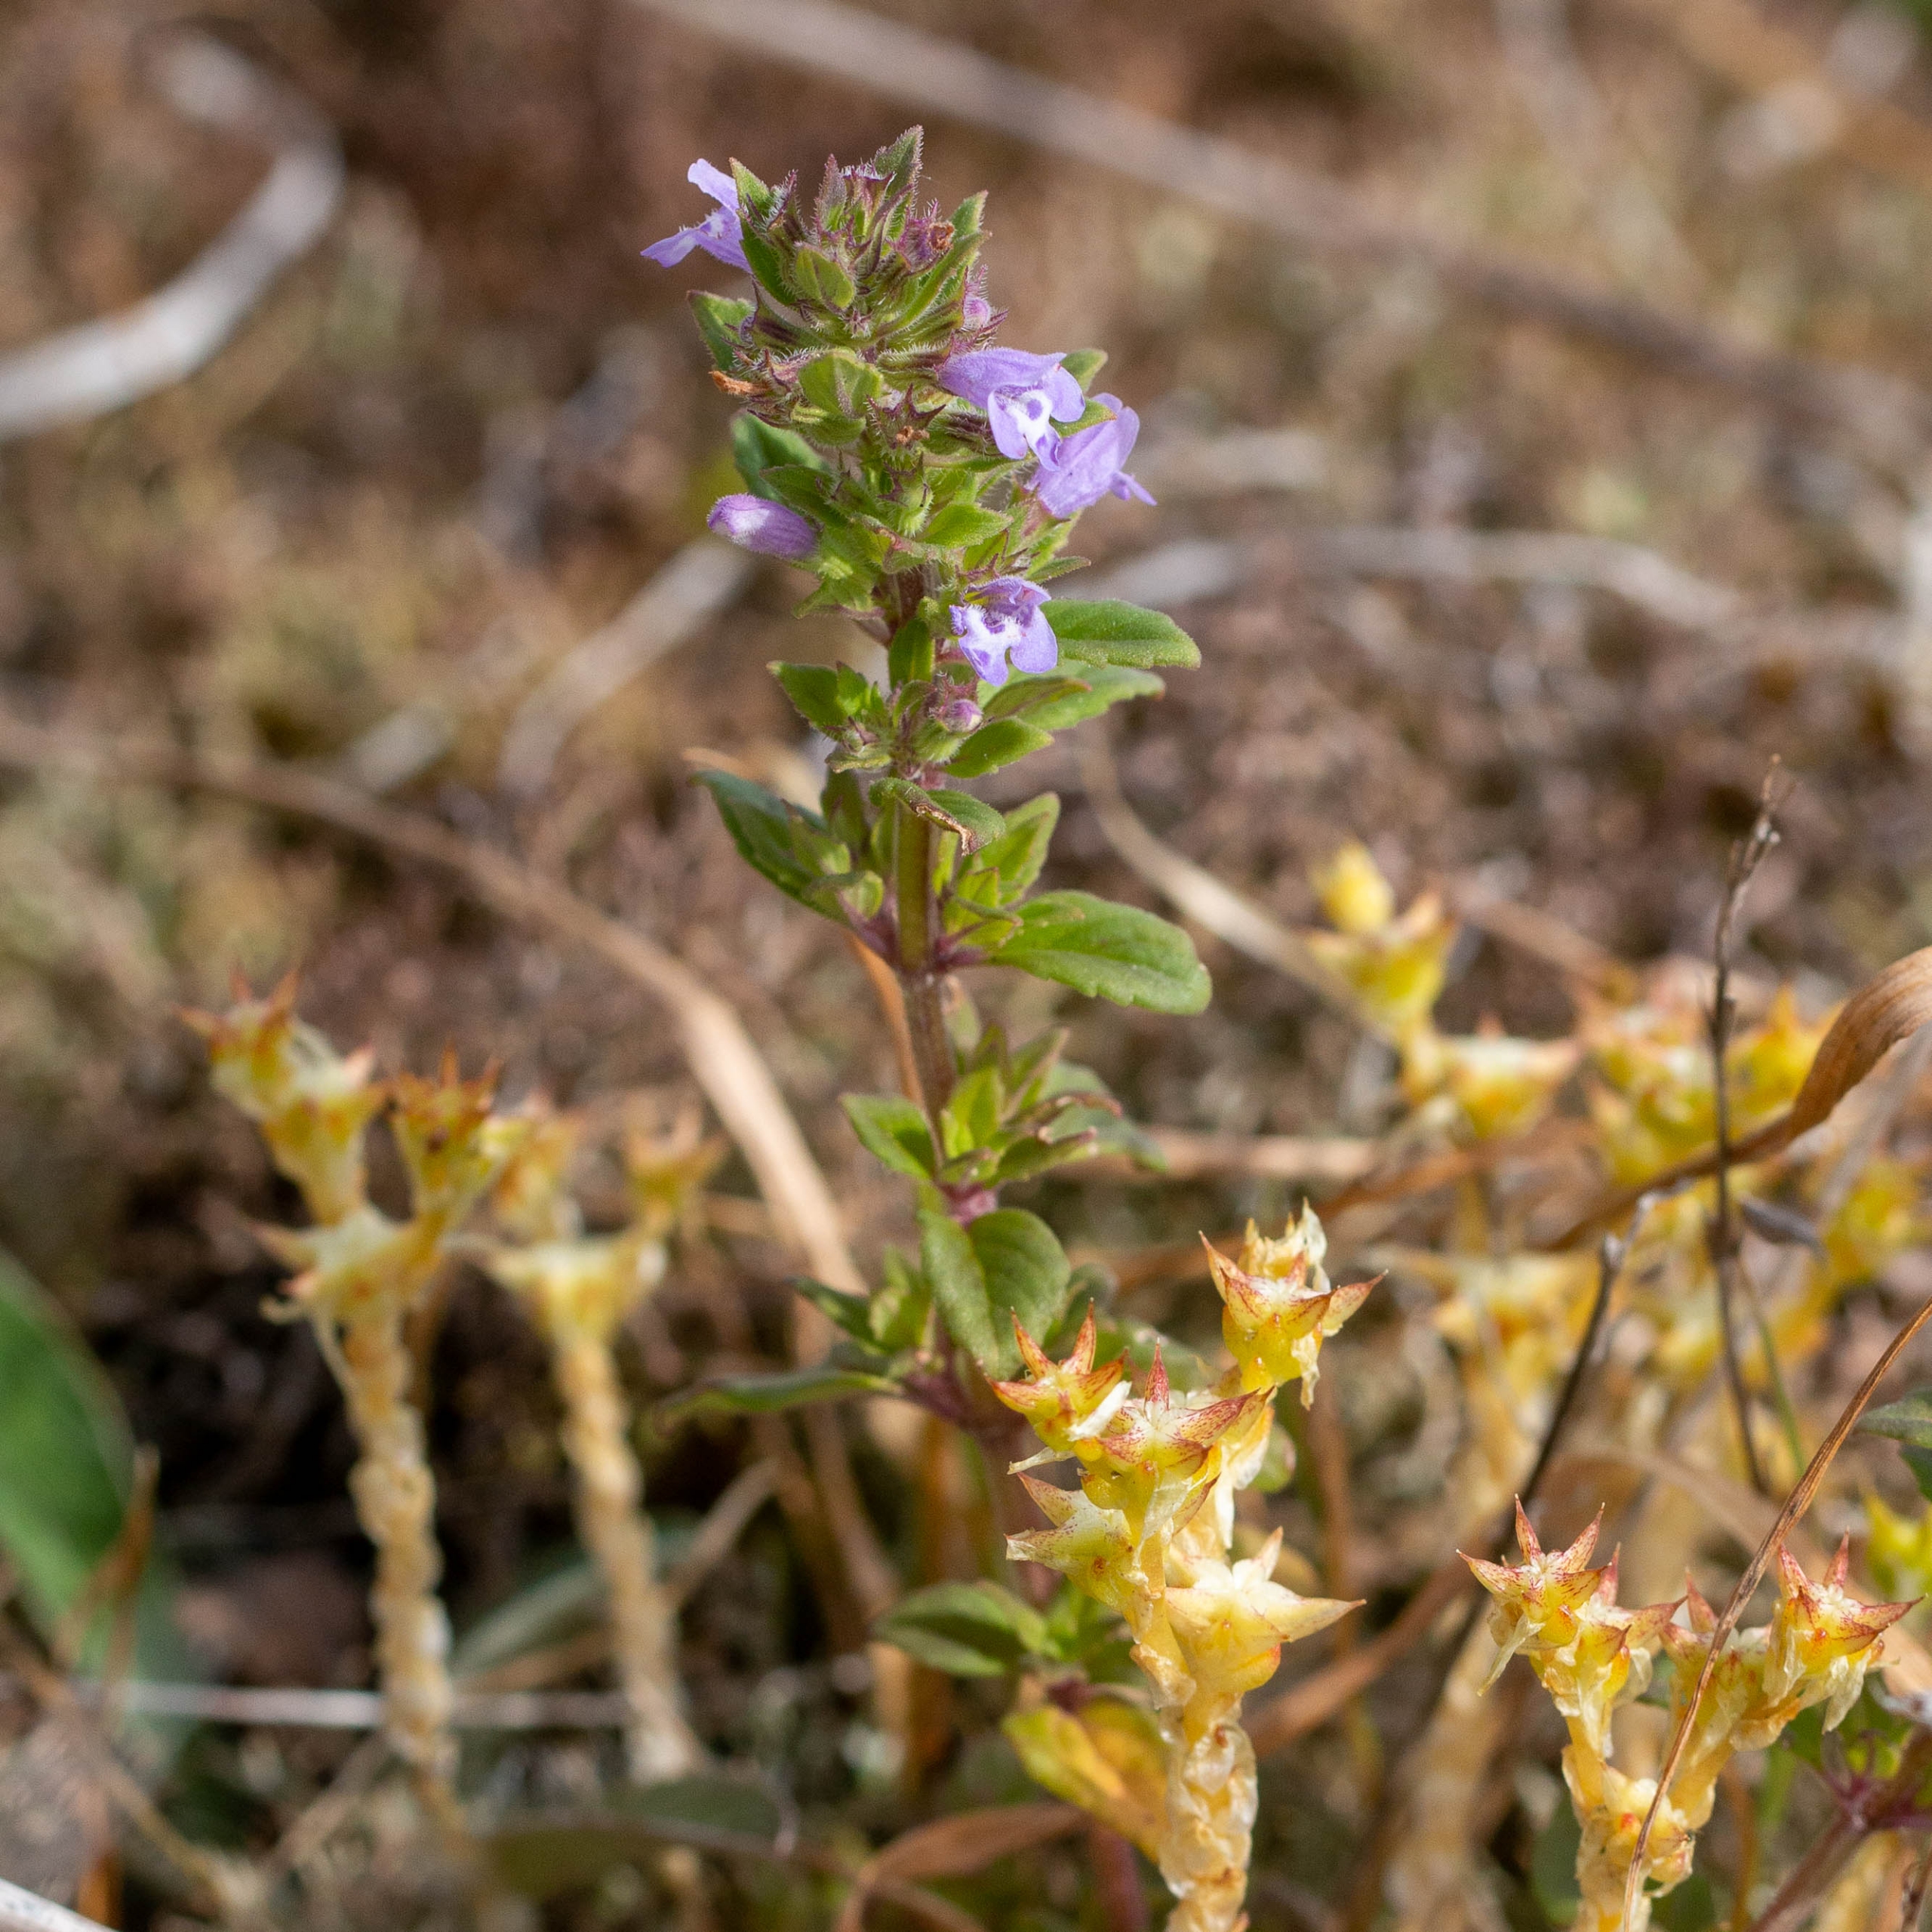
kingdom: Plantae
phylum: Tracheophyta
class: Magnoliopsida
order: Lamiales
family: Lamiaceae
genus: Clinopodium
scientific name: Clinopodium acinos
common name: Voldtimian
